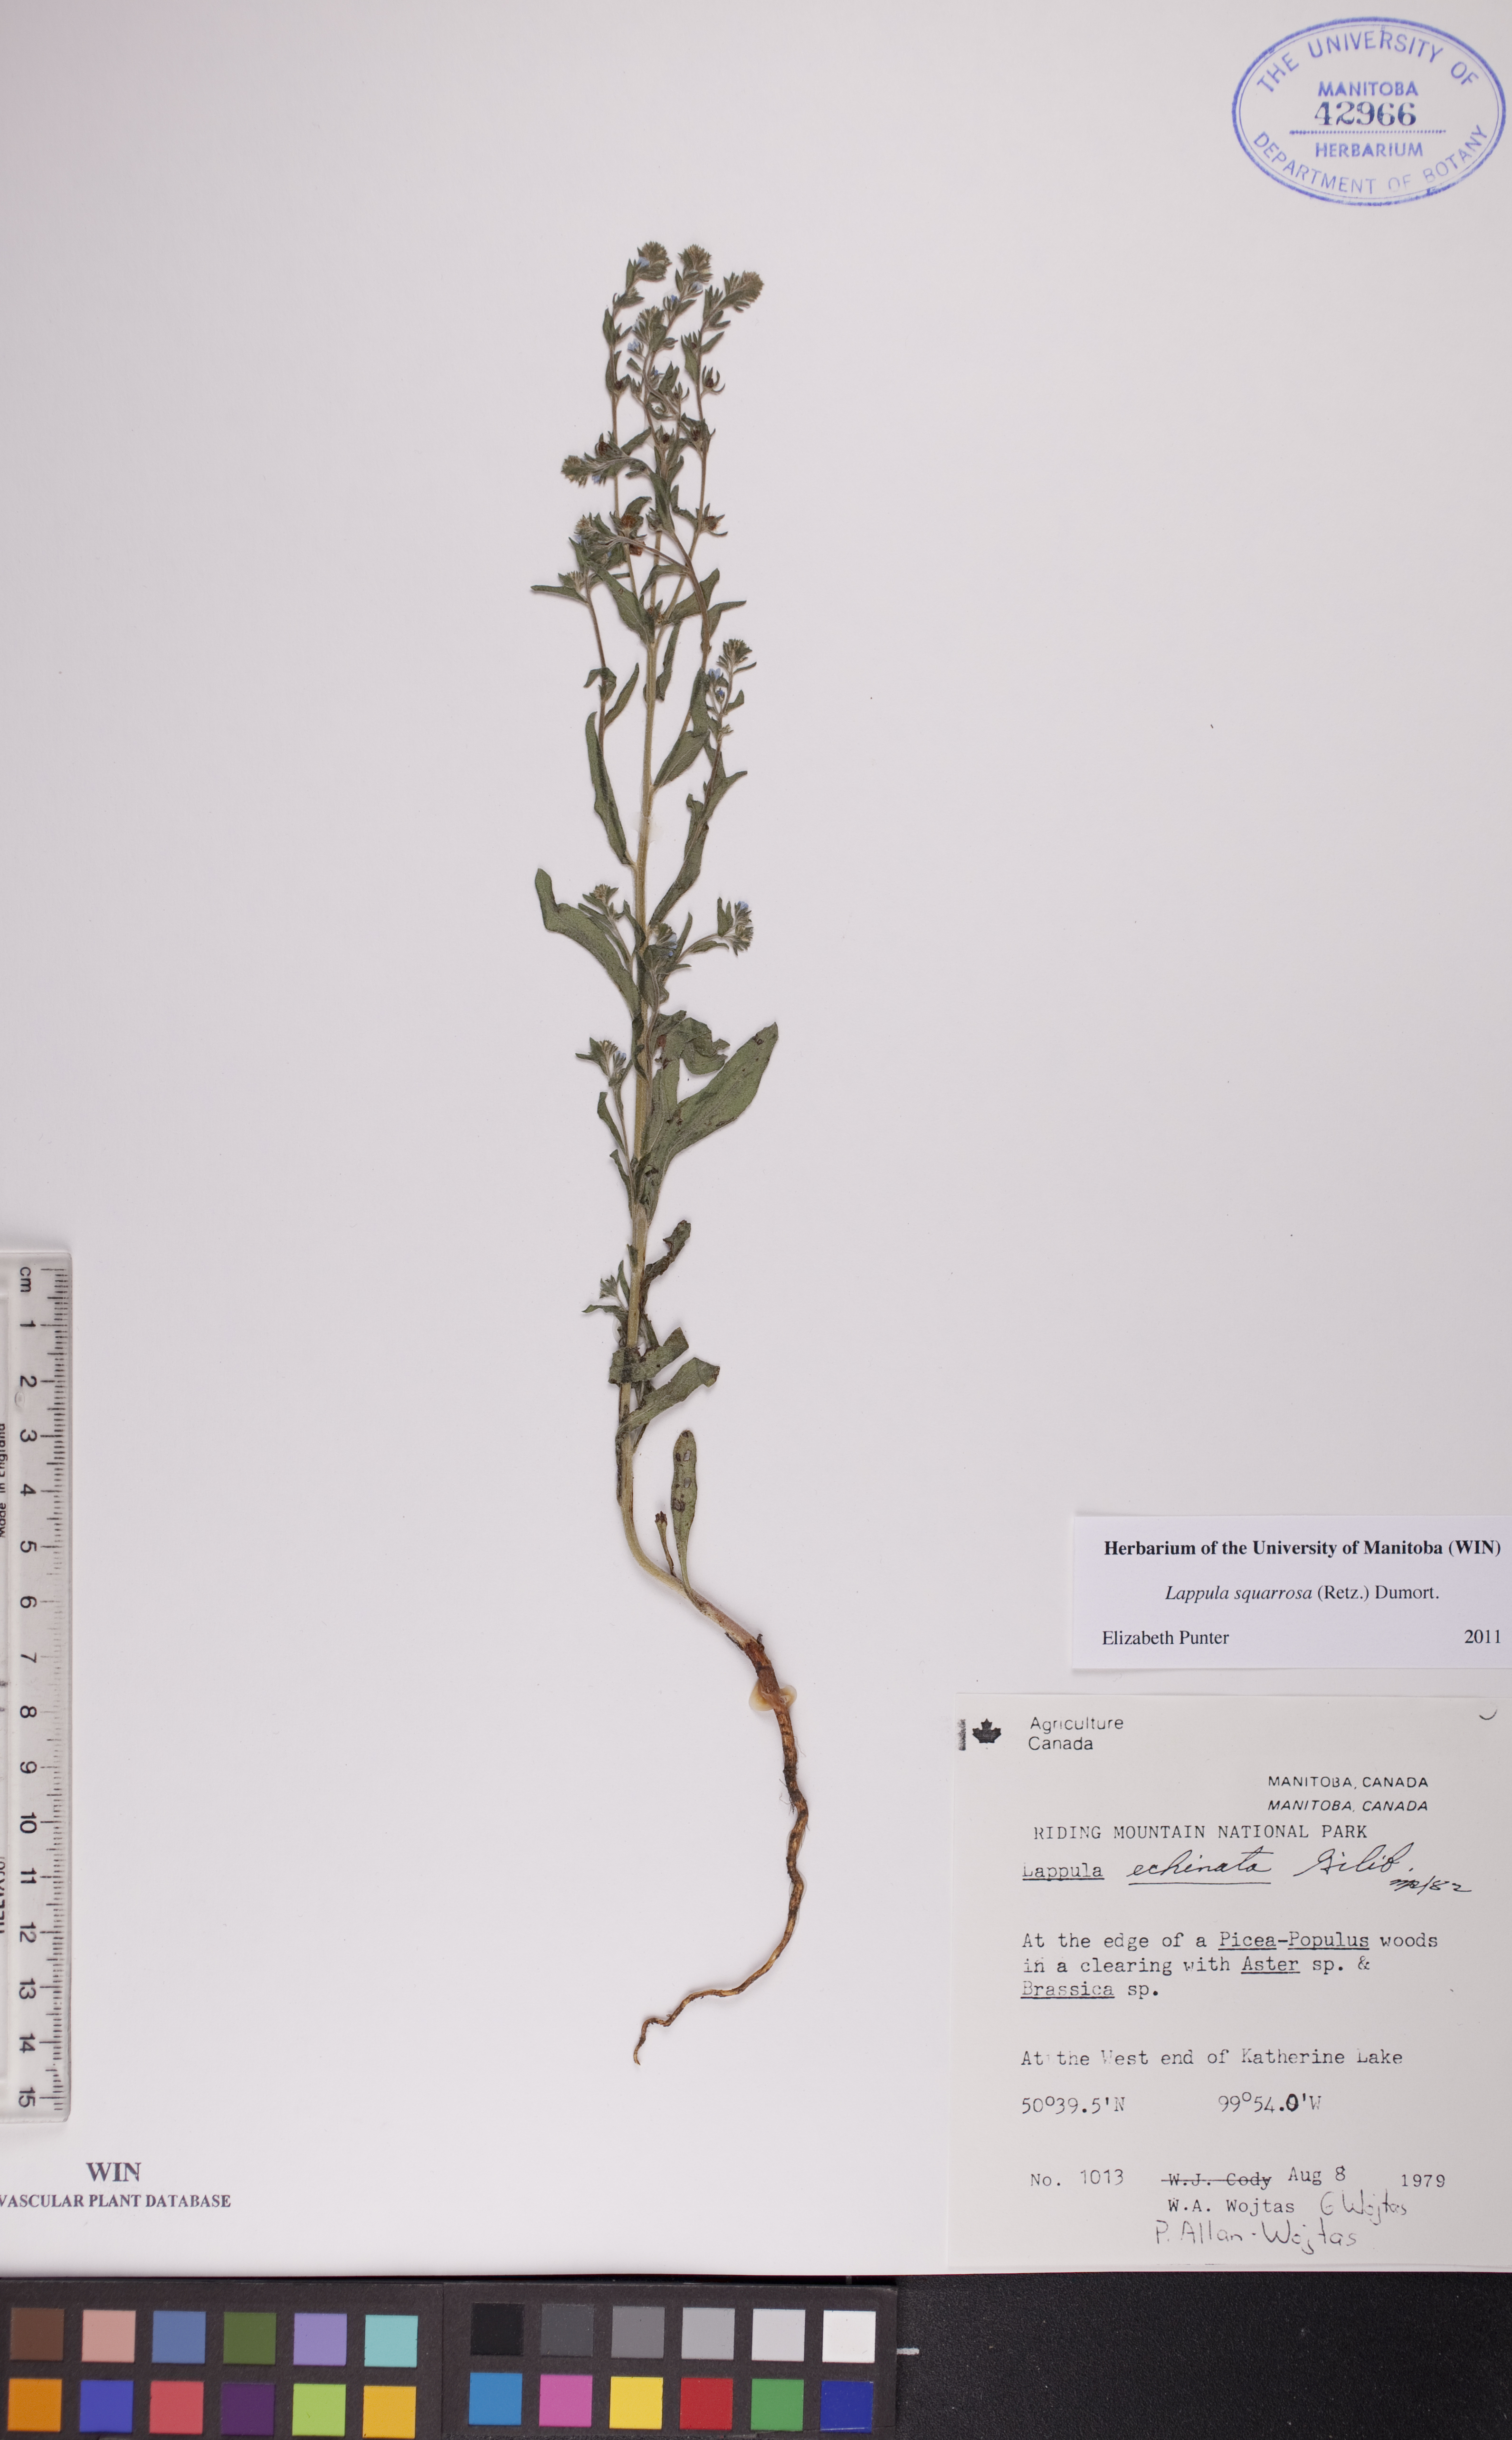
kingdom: Plantae
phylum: Tracheophyta
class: Magnoliopsida
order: Boraginales
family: Boraginaceae
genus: Lappula
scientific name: Lappula squarrosa
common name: European stickseed
